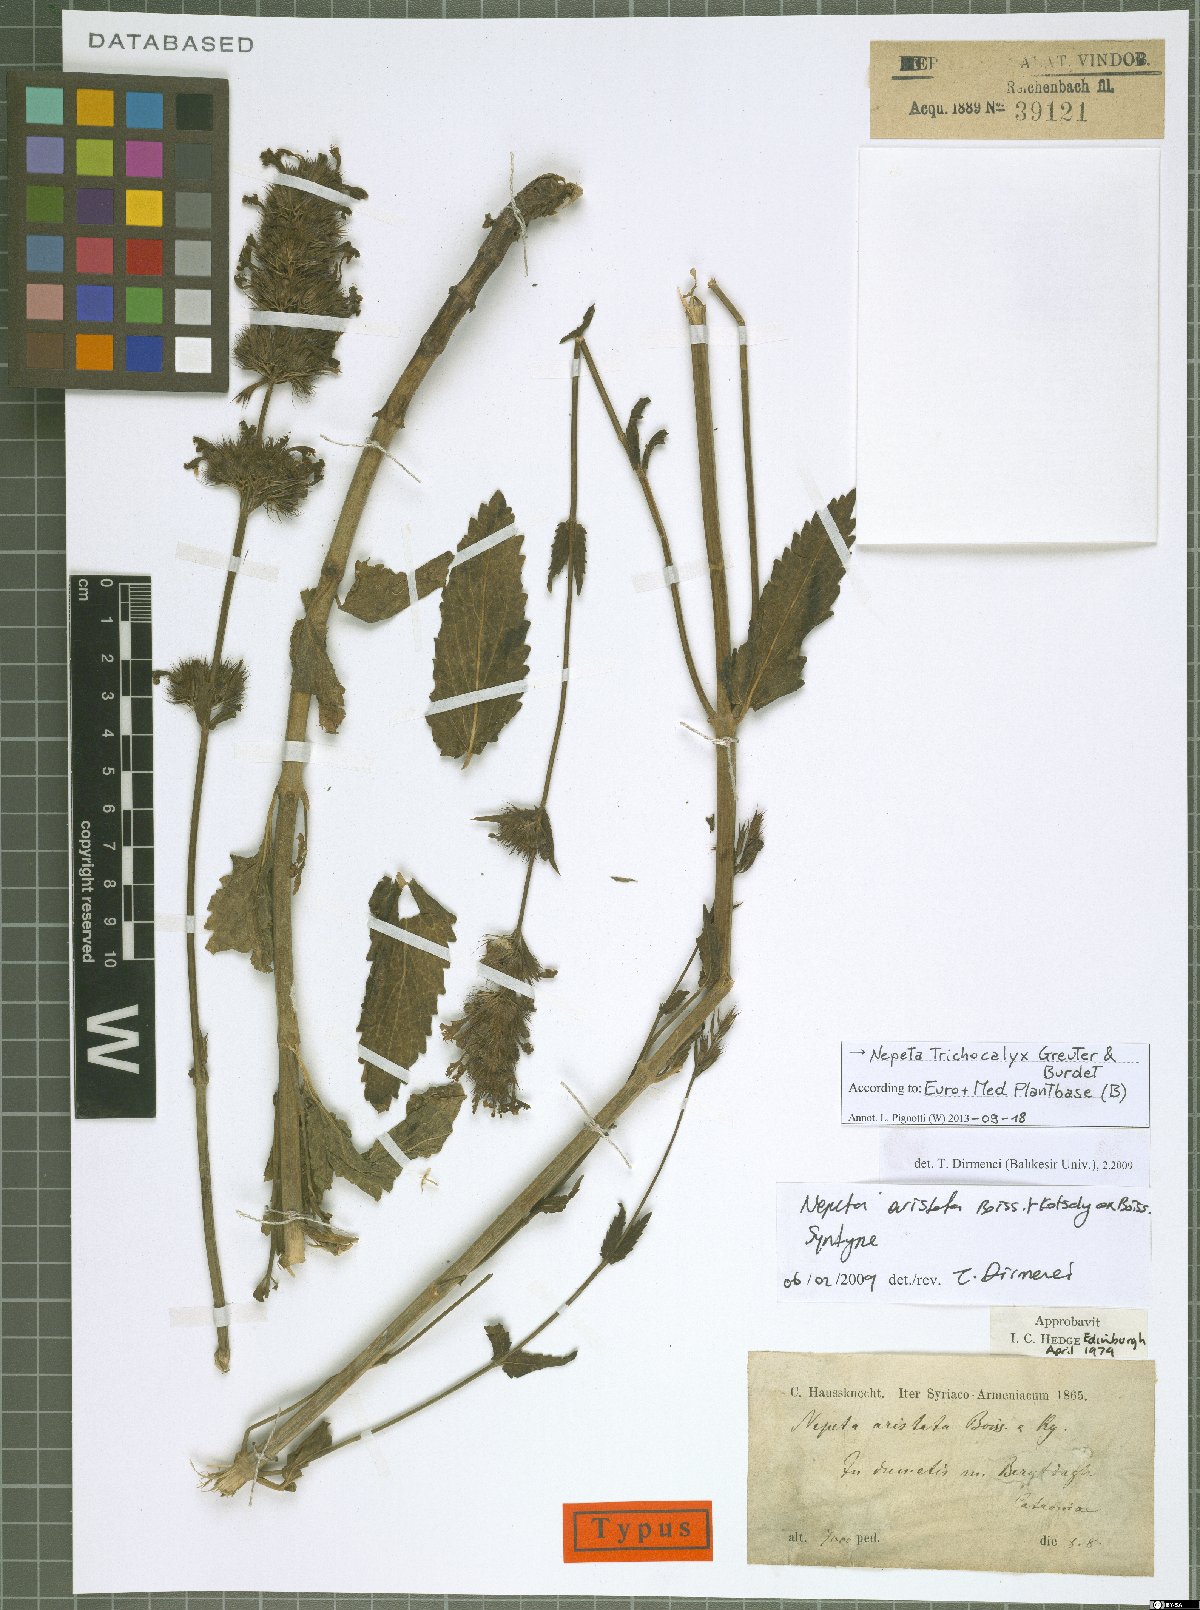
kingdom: Plantae
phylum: Tracheophyta
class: Magnoliopsida
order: Lamiales
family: Lamiaceae
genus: Nepeta
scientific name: Nepeta trichocalyx
